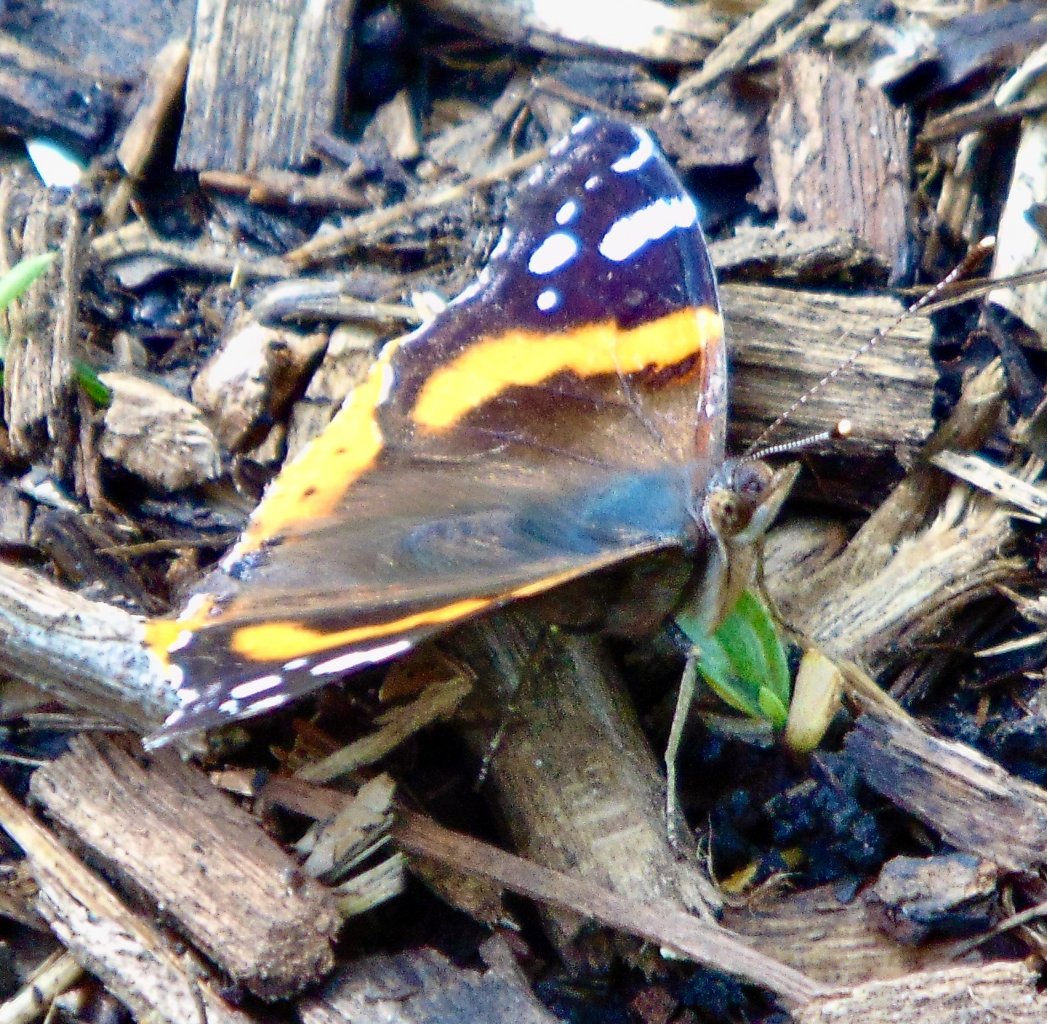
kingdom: Animalia
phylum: Arthropoda
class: Insecta
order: Lepidoptera
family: Nymphalidae
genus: Vanessa
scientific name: Vanessa atalanta
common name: Red Admiral
